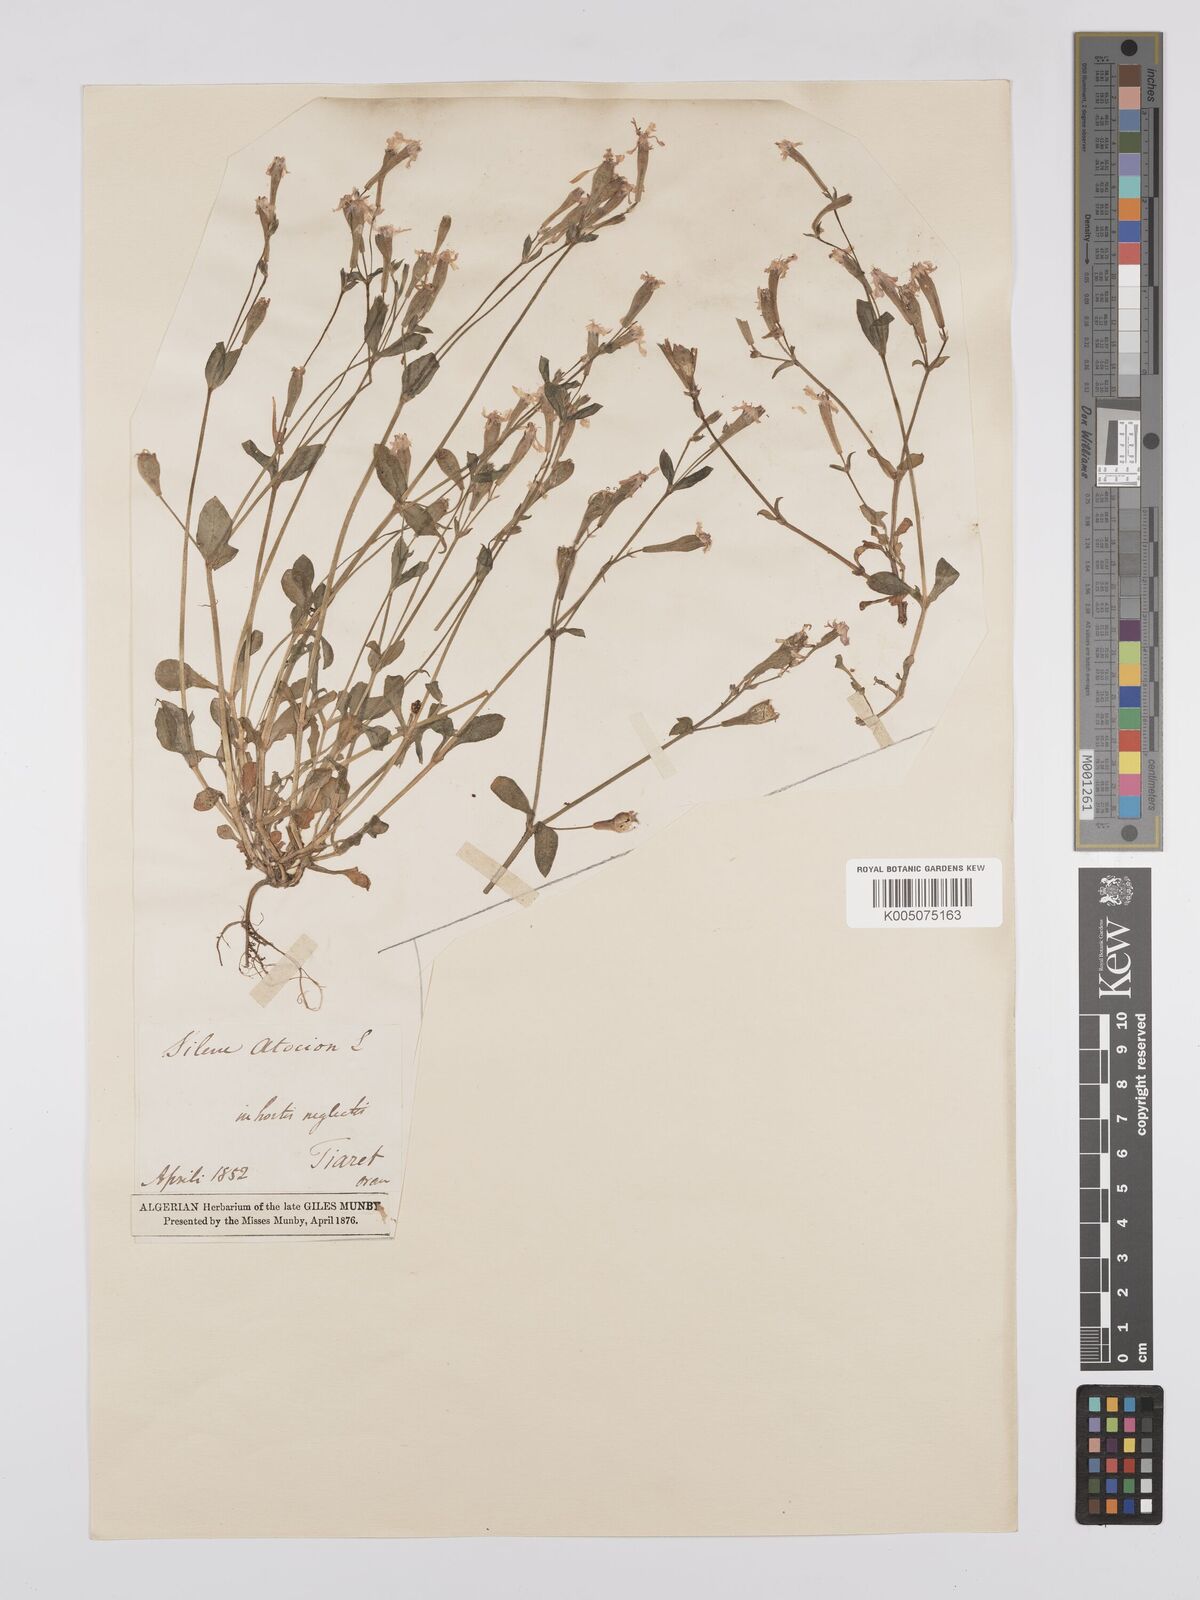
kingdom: Plantae
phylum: Tracheophyta
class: Magnoliopsida
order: Caryophyllales
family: Caryophyllaceae
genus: Silene
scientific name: Silene pseudoatocion
